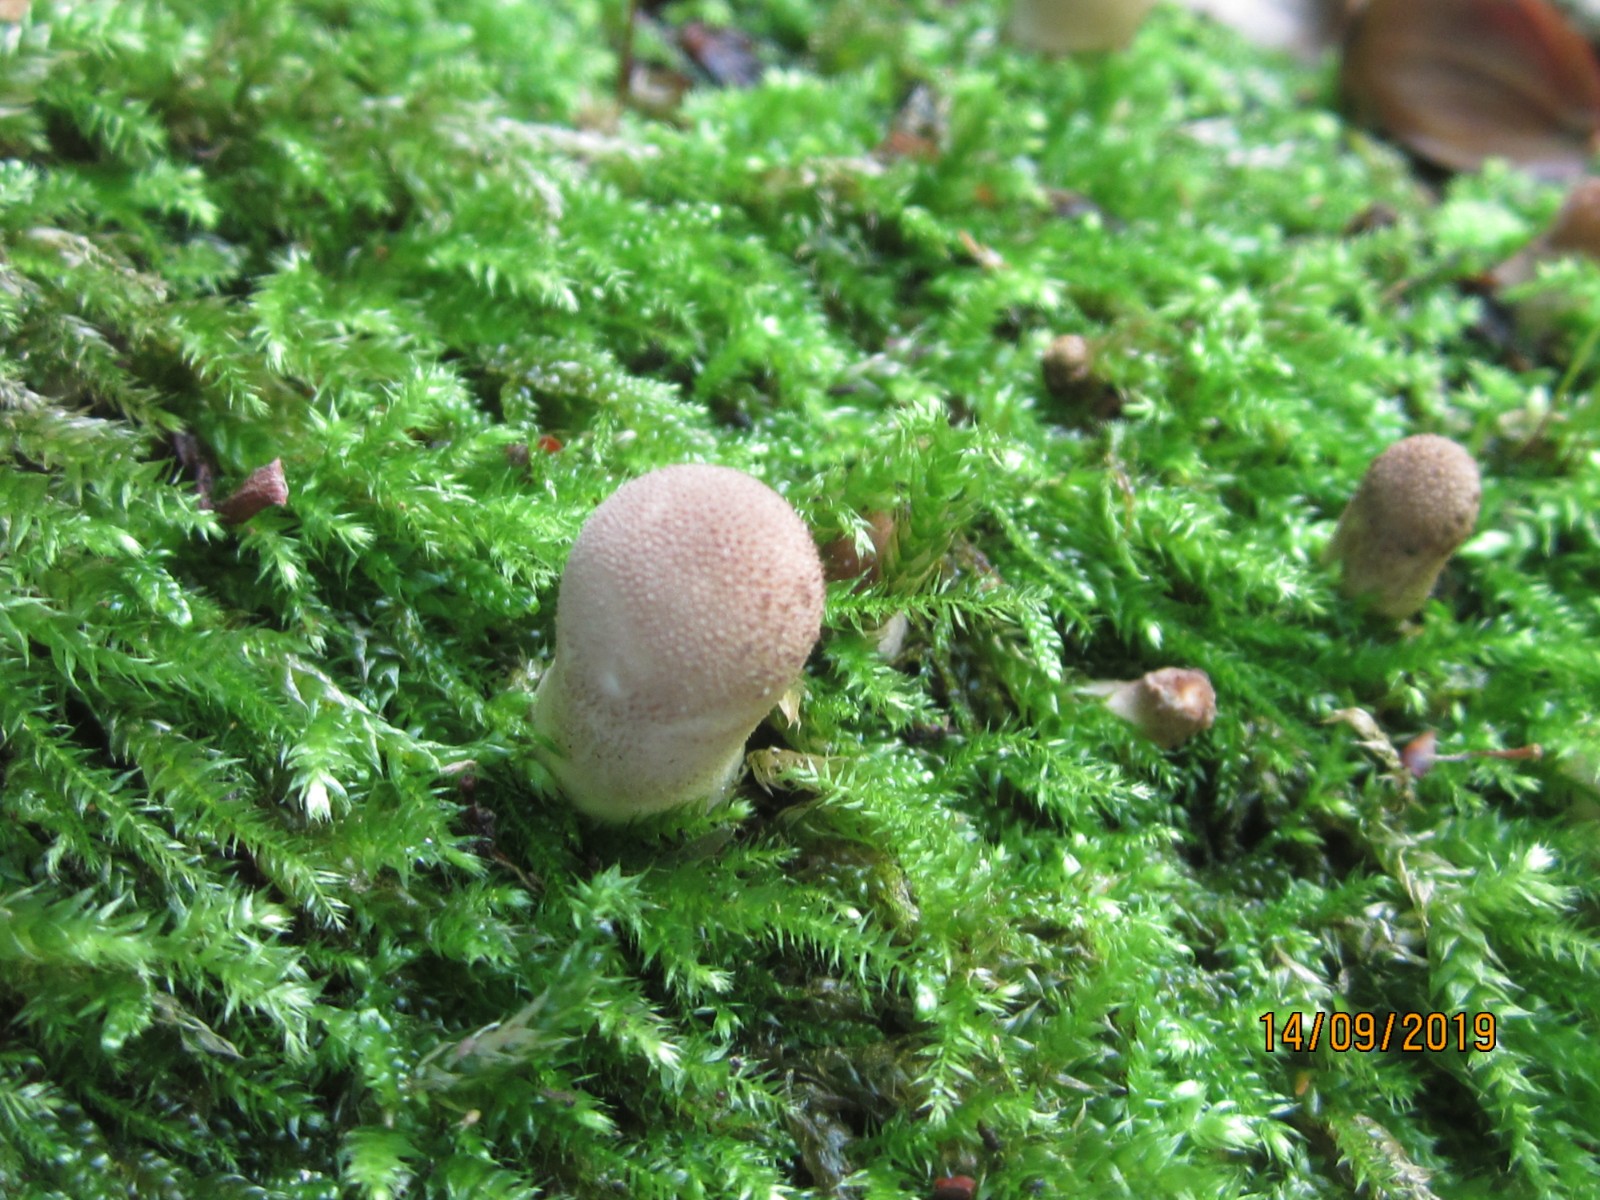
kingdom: Fungi
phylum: Basidiomycota
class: Agaricomycetes
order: Agaricales
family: Lycoperdaceae
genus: Apioperdon
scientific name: Apioperdon pyriforme
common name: pære-støvbold
